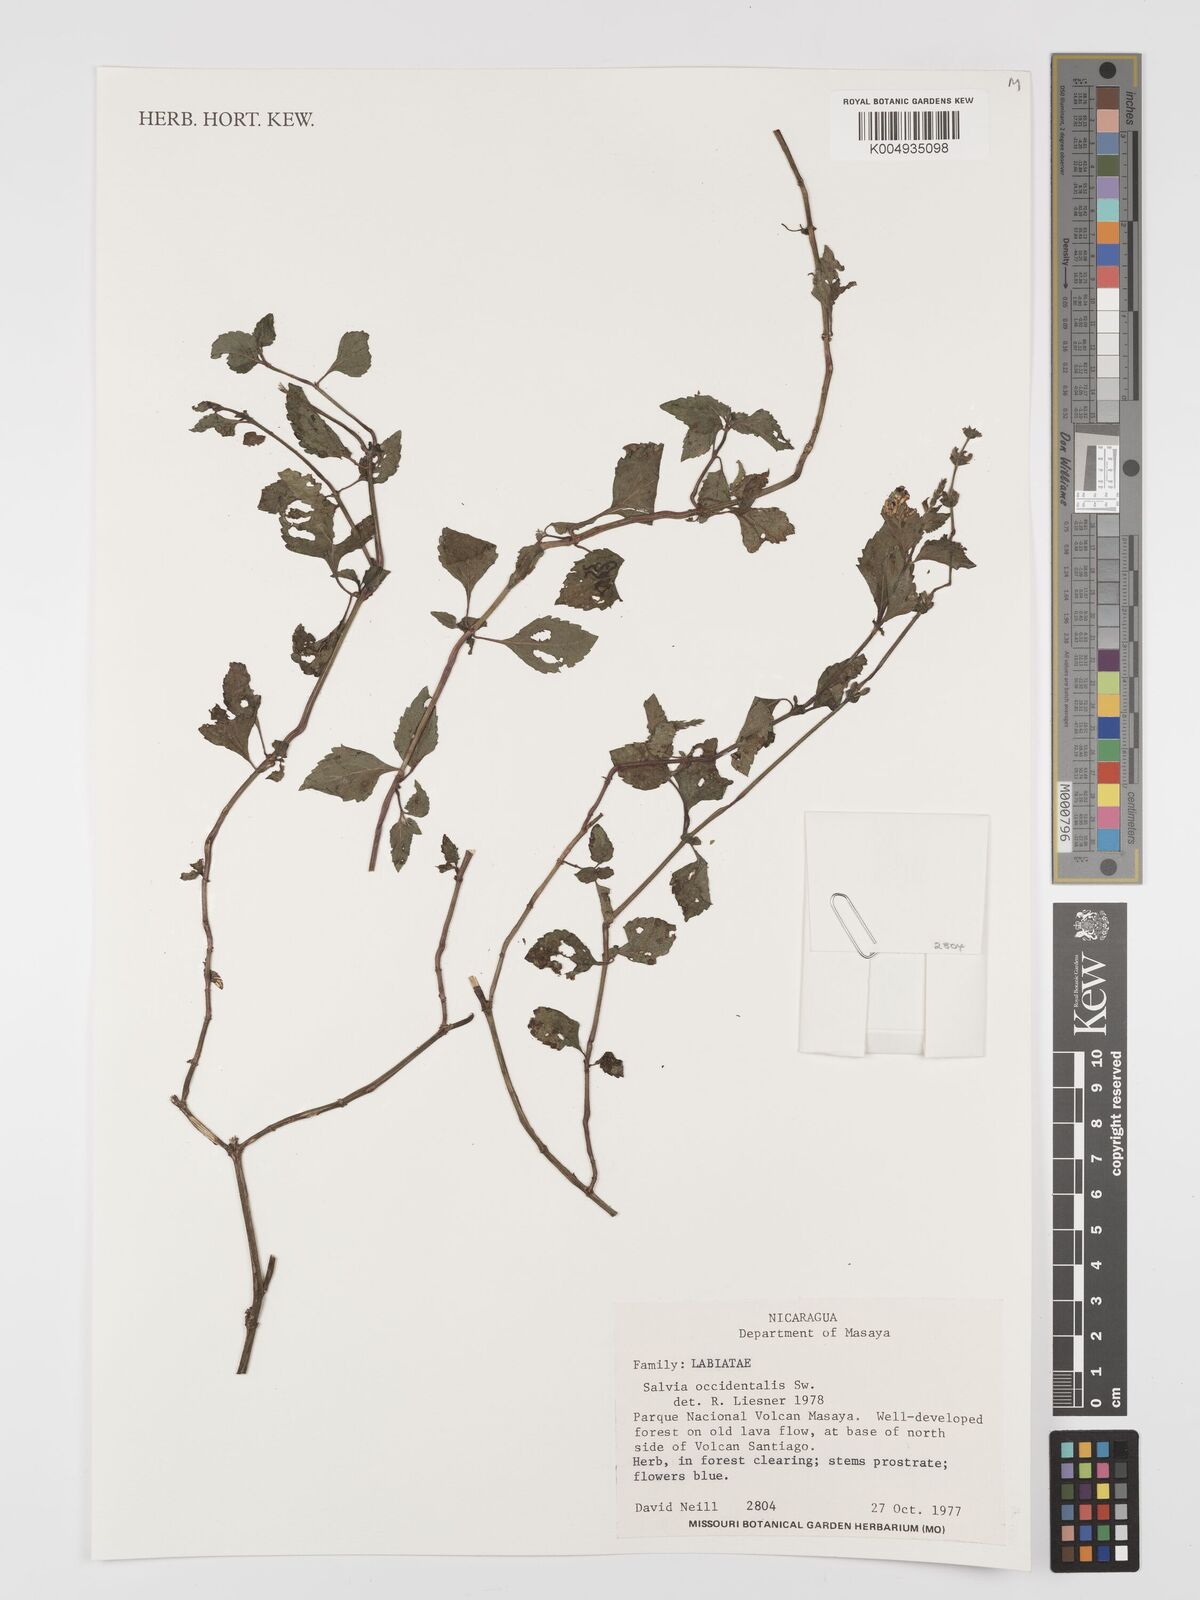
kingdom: Plantae
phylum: Tracheophyta
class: Magnoliopsida
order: Lamiales
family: Lamiaceae
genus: Salvia
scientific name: Salvia occidentalis
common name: West indian sage
